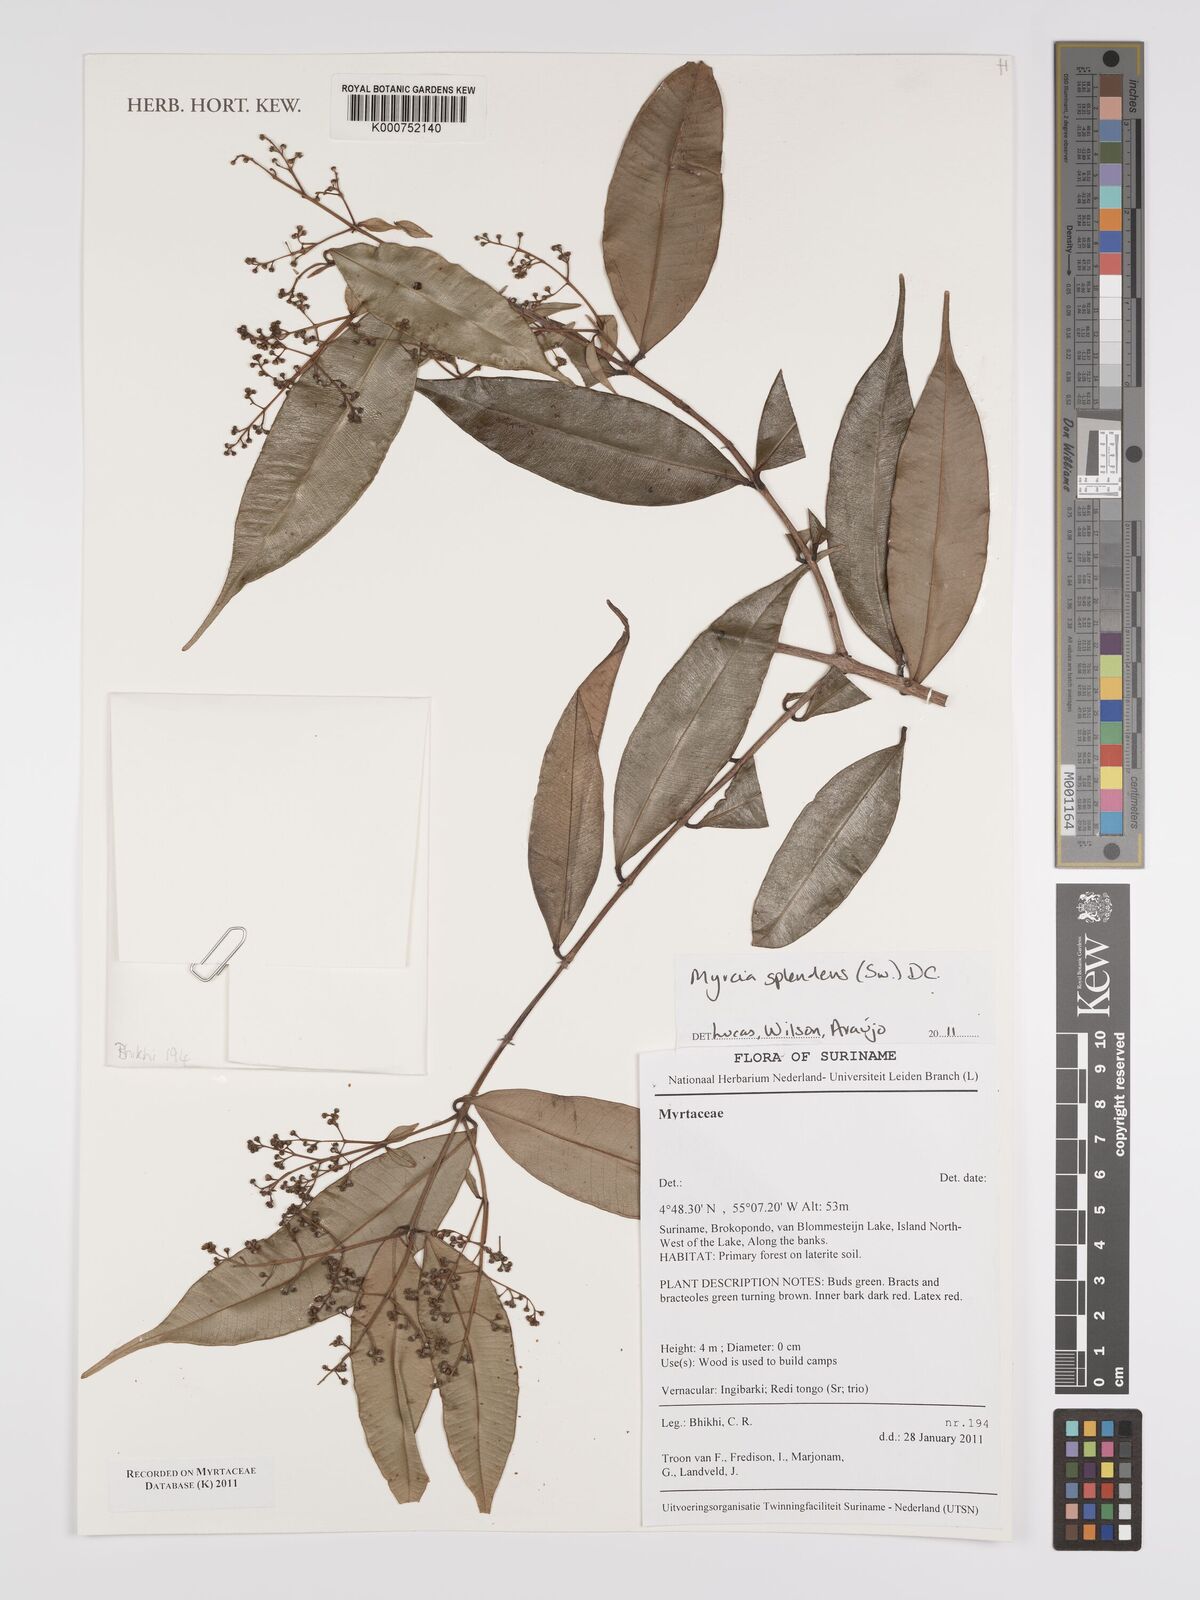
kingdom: Plantae
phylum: Tracheophyta
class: Magnoliopsida
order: Myrtales
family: Myrtaceae
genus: Myrcia
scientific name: Myrcia splendens
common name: Surinam cherry
